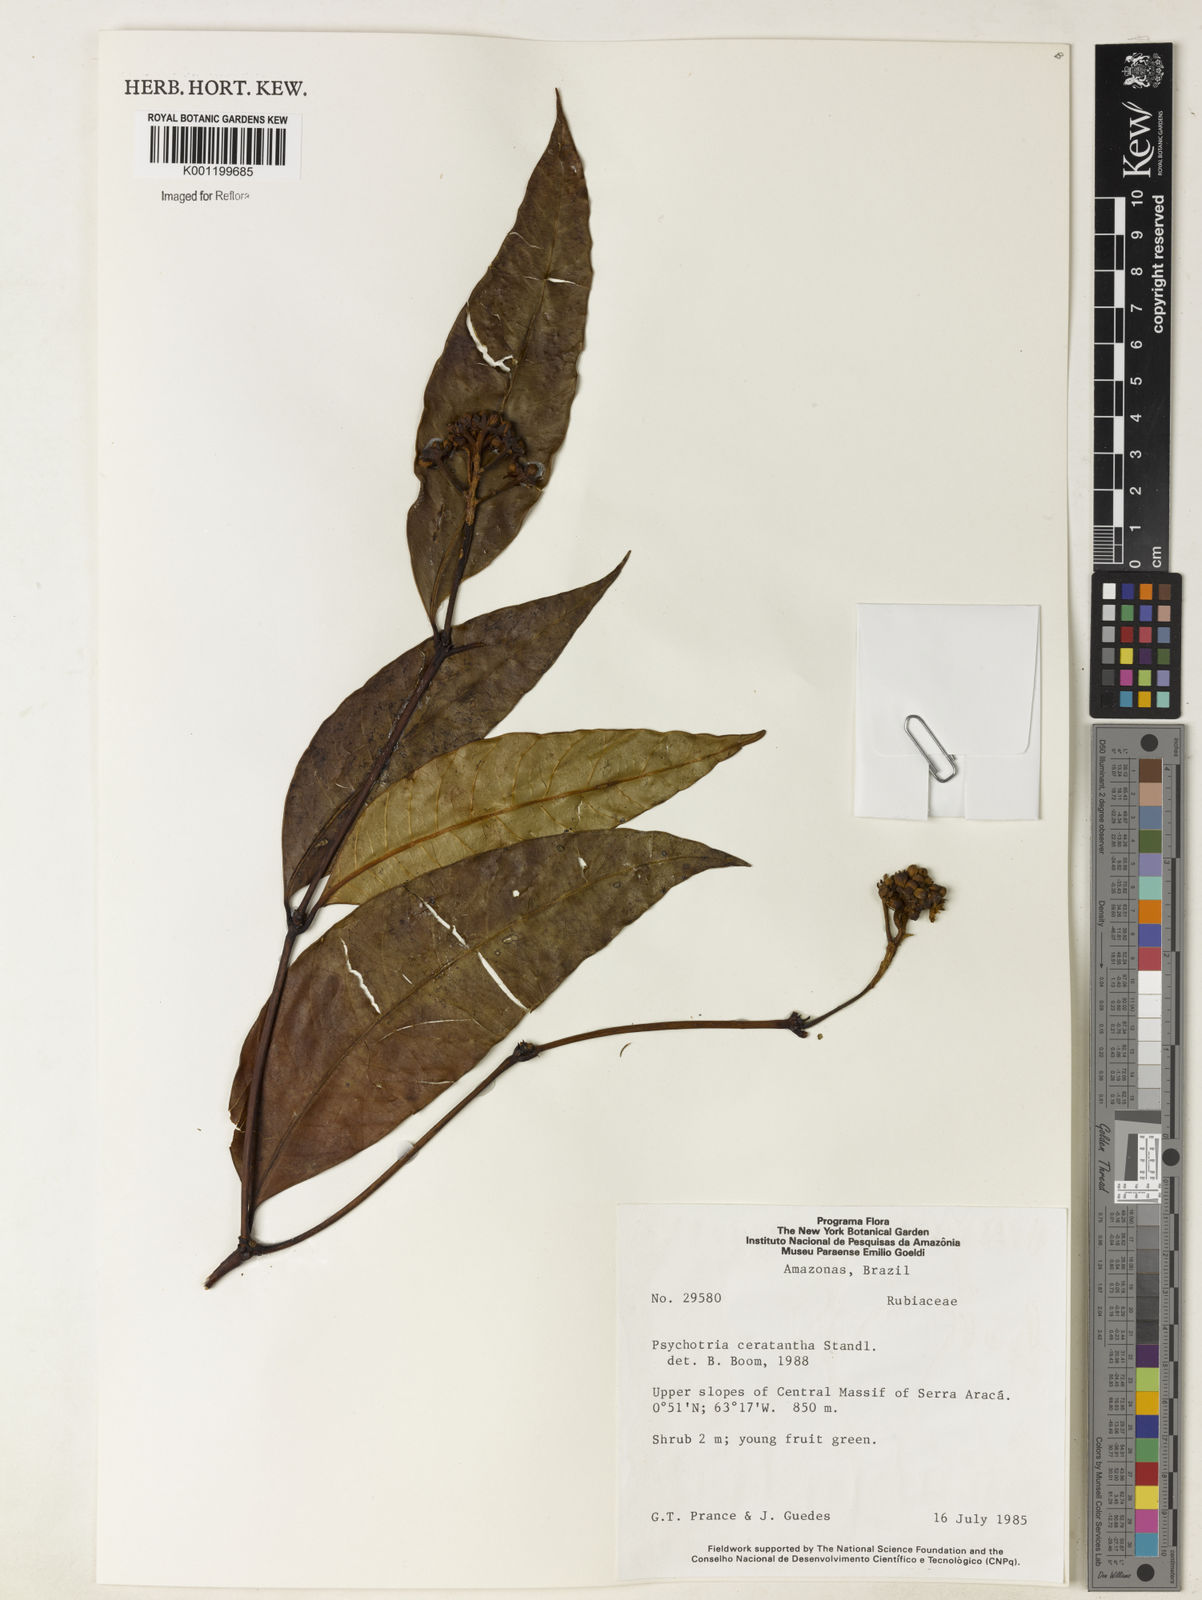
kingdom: Plantae
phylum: Tracheophyta
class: Magnoliopsida
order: Gentianales
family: Rubiaceae
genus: Palicourea
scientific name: Palicourea ceratantha
